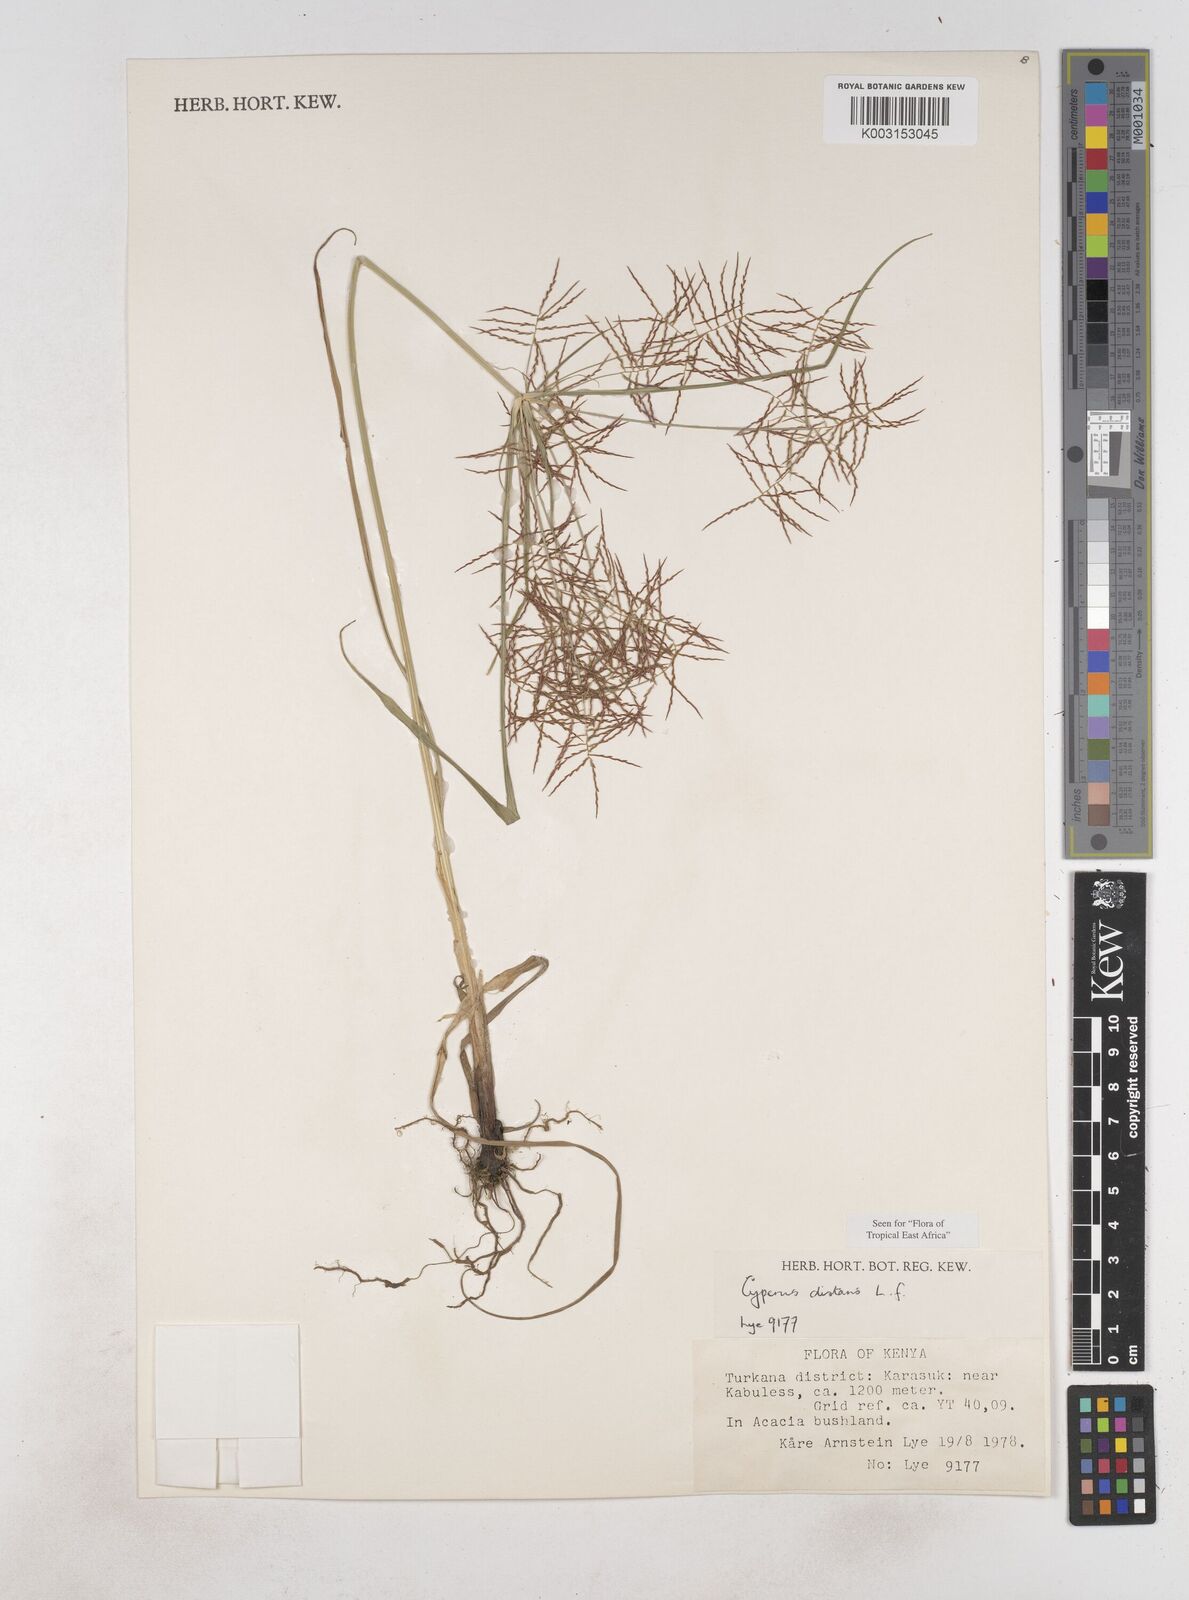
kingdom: Plantae
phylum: Tracheophyta
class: Liliopsida
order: Poales
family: Cyperaceae
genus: Cyperus
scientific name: Cyperus distans
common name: Slender cyperus
